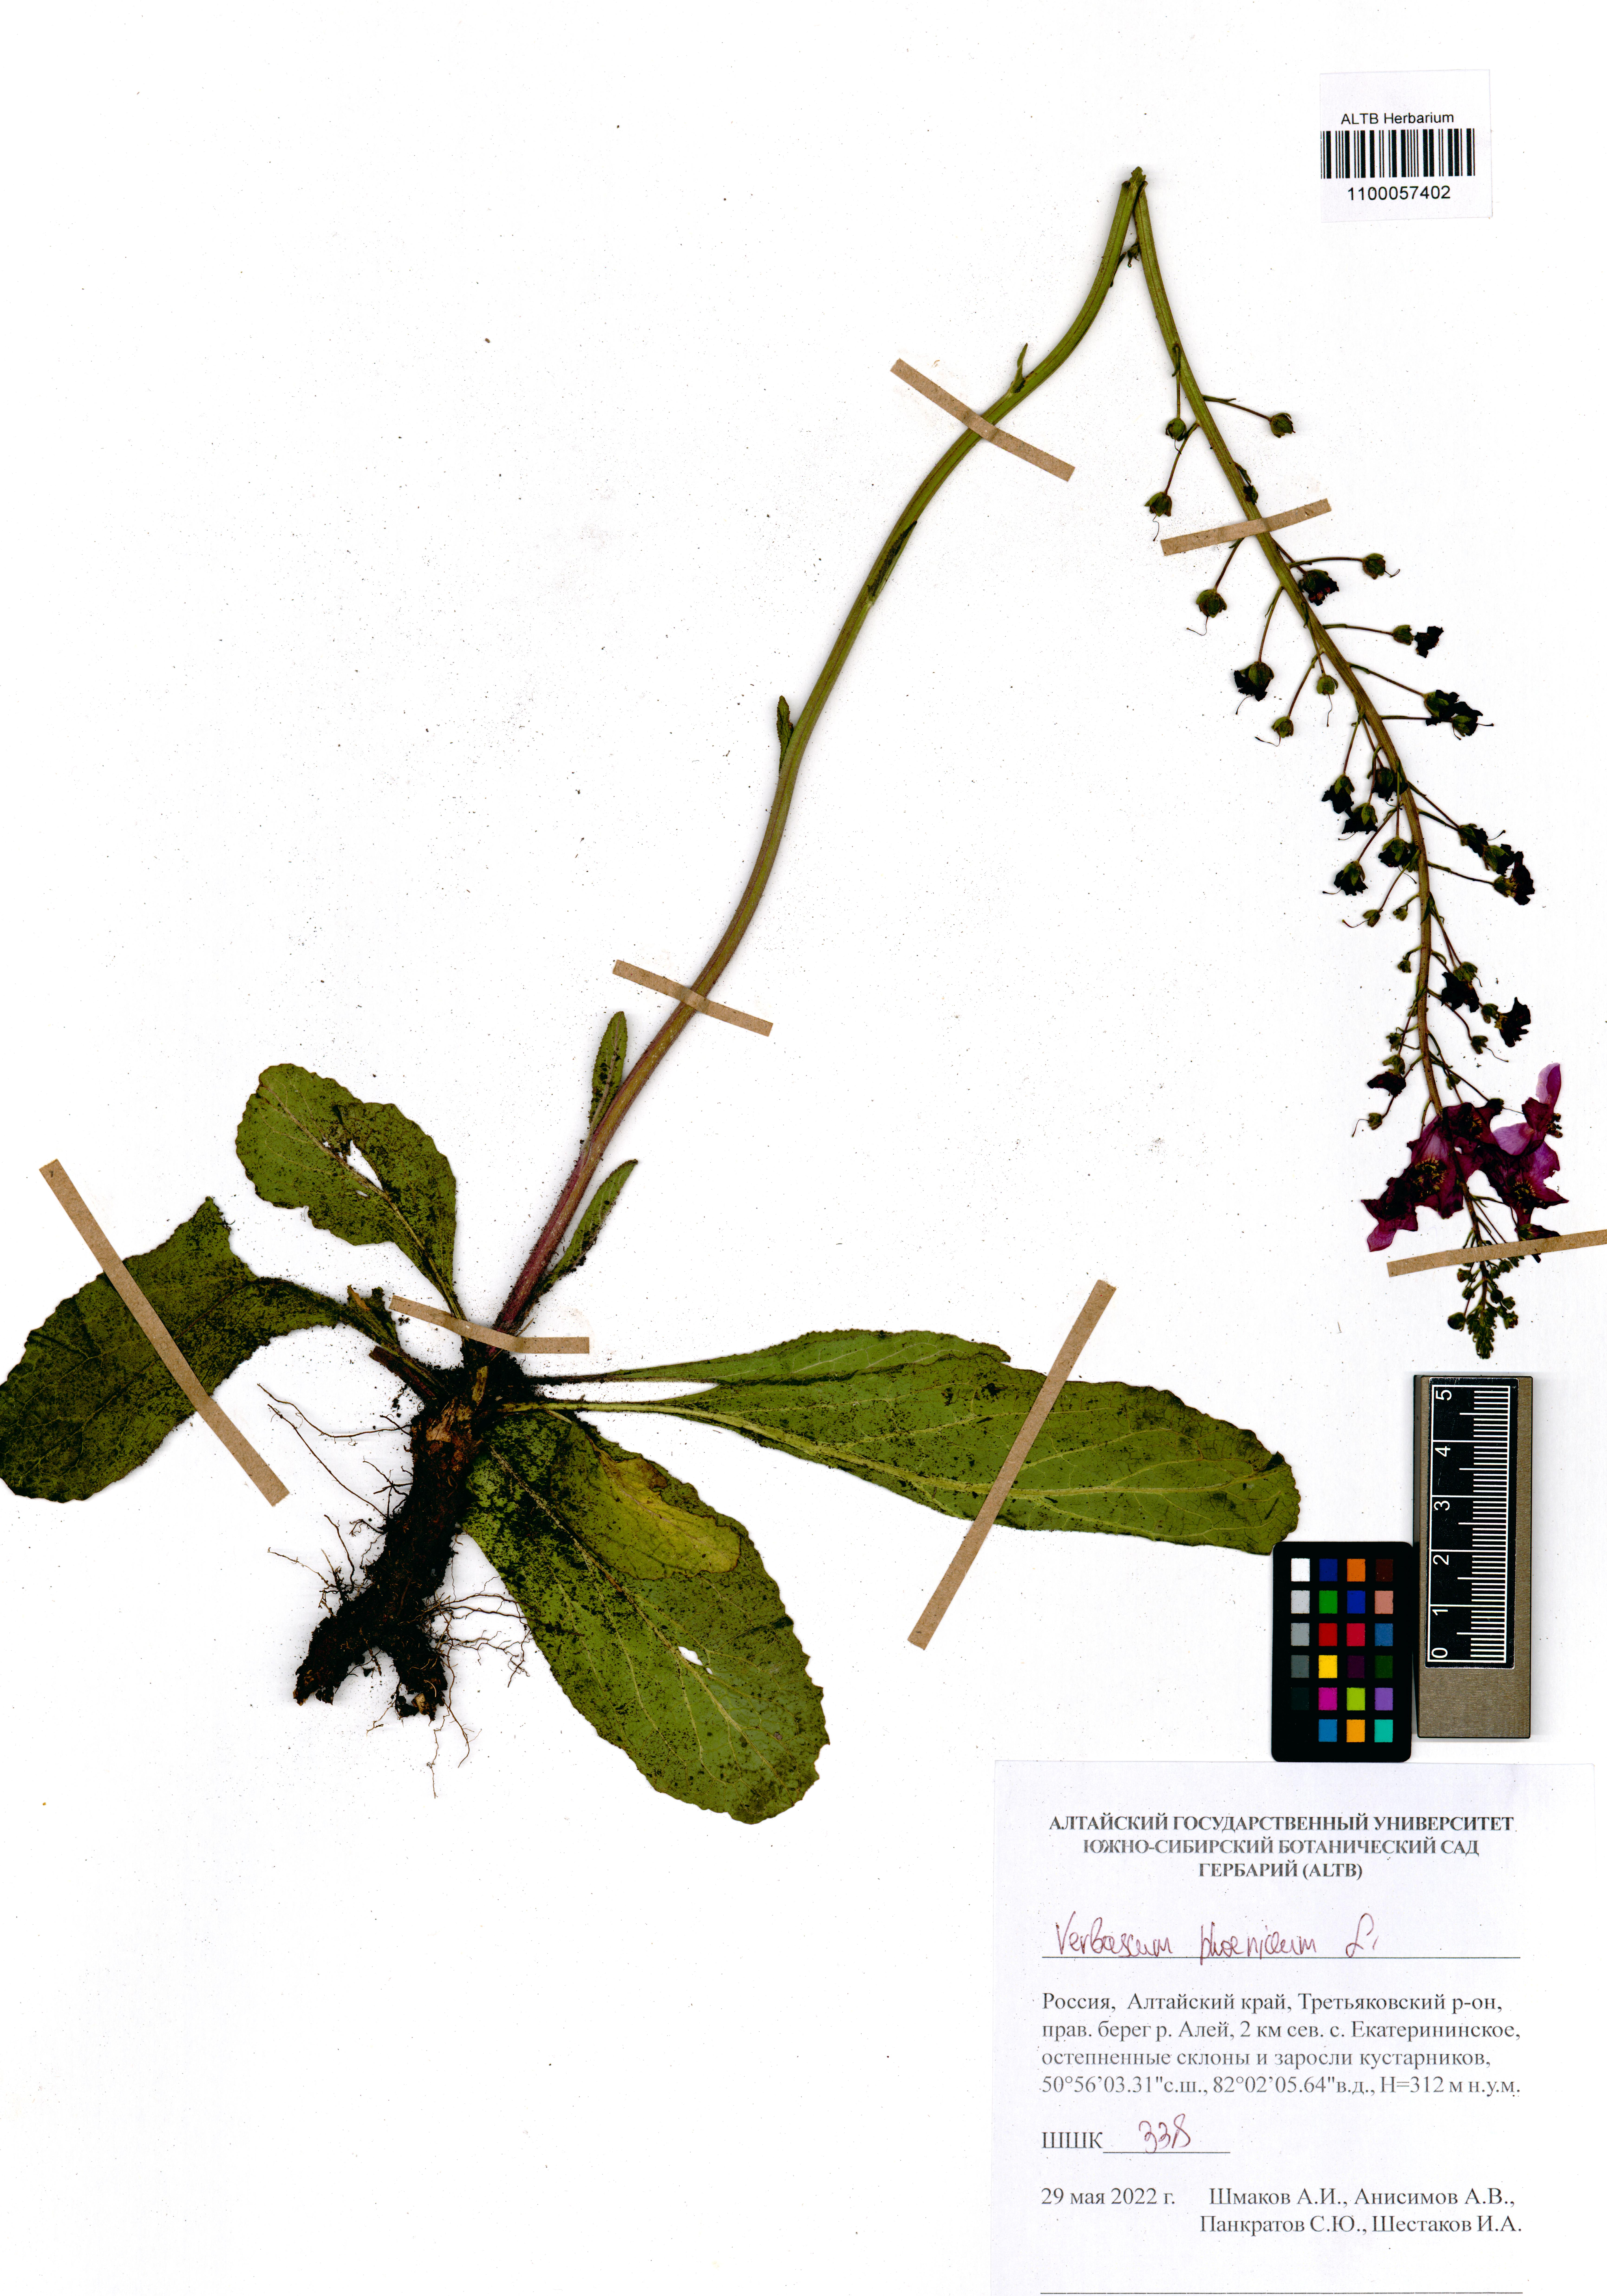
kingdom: Plantae
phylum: Tracheophyta
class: Magnoliopsida
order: Lamiales
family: Scrophulariaceae
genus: Verbascum
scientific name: Verbascum phoeniceum
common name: Purple mullein
